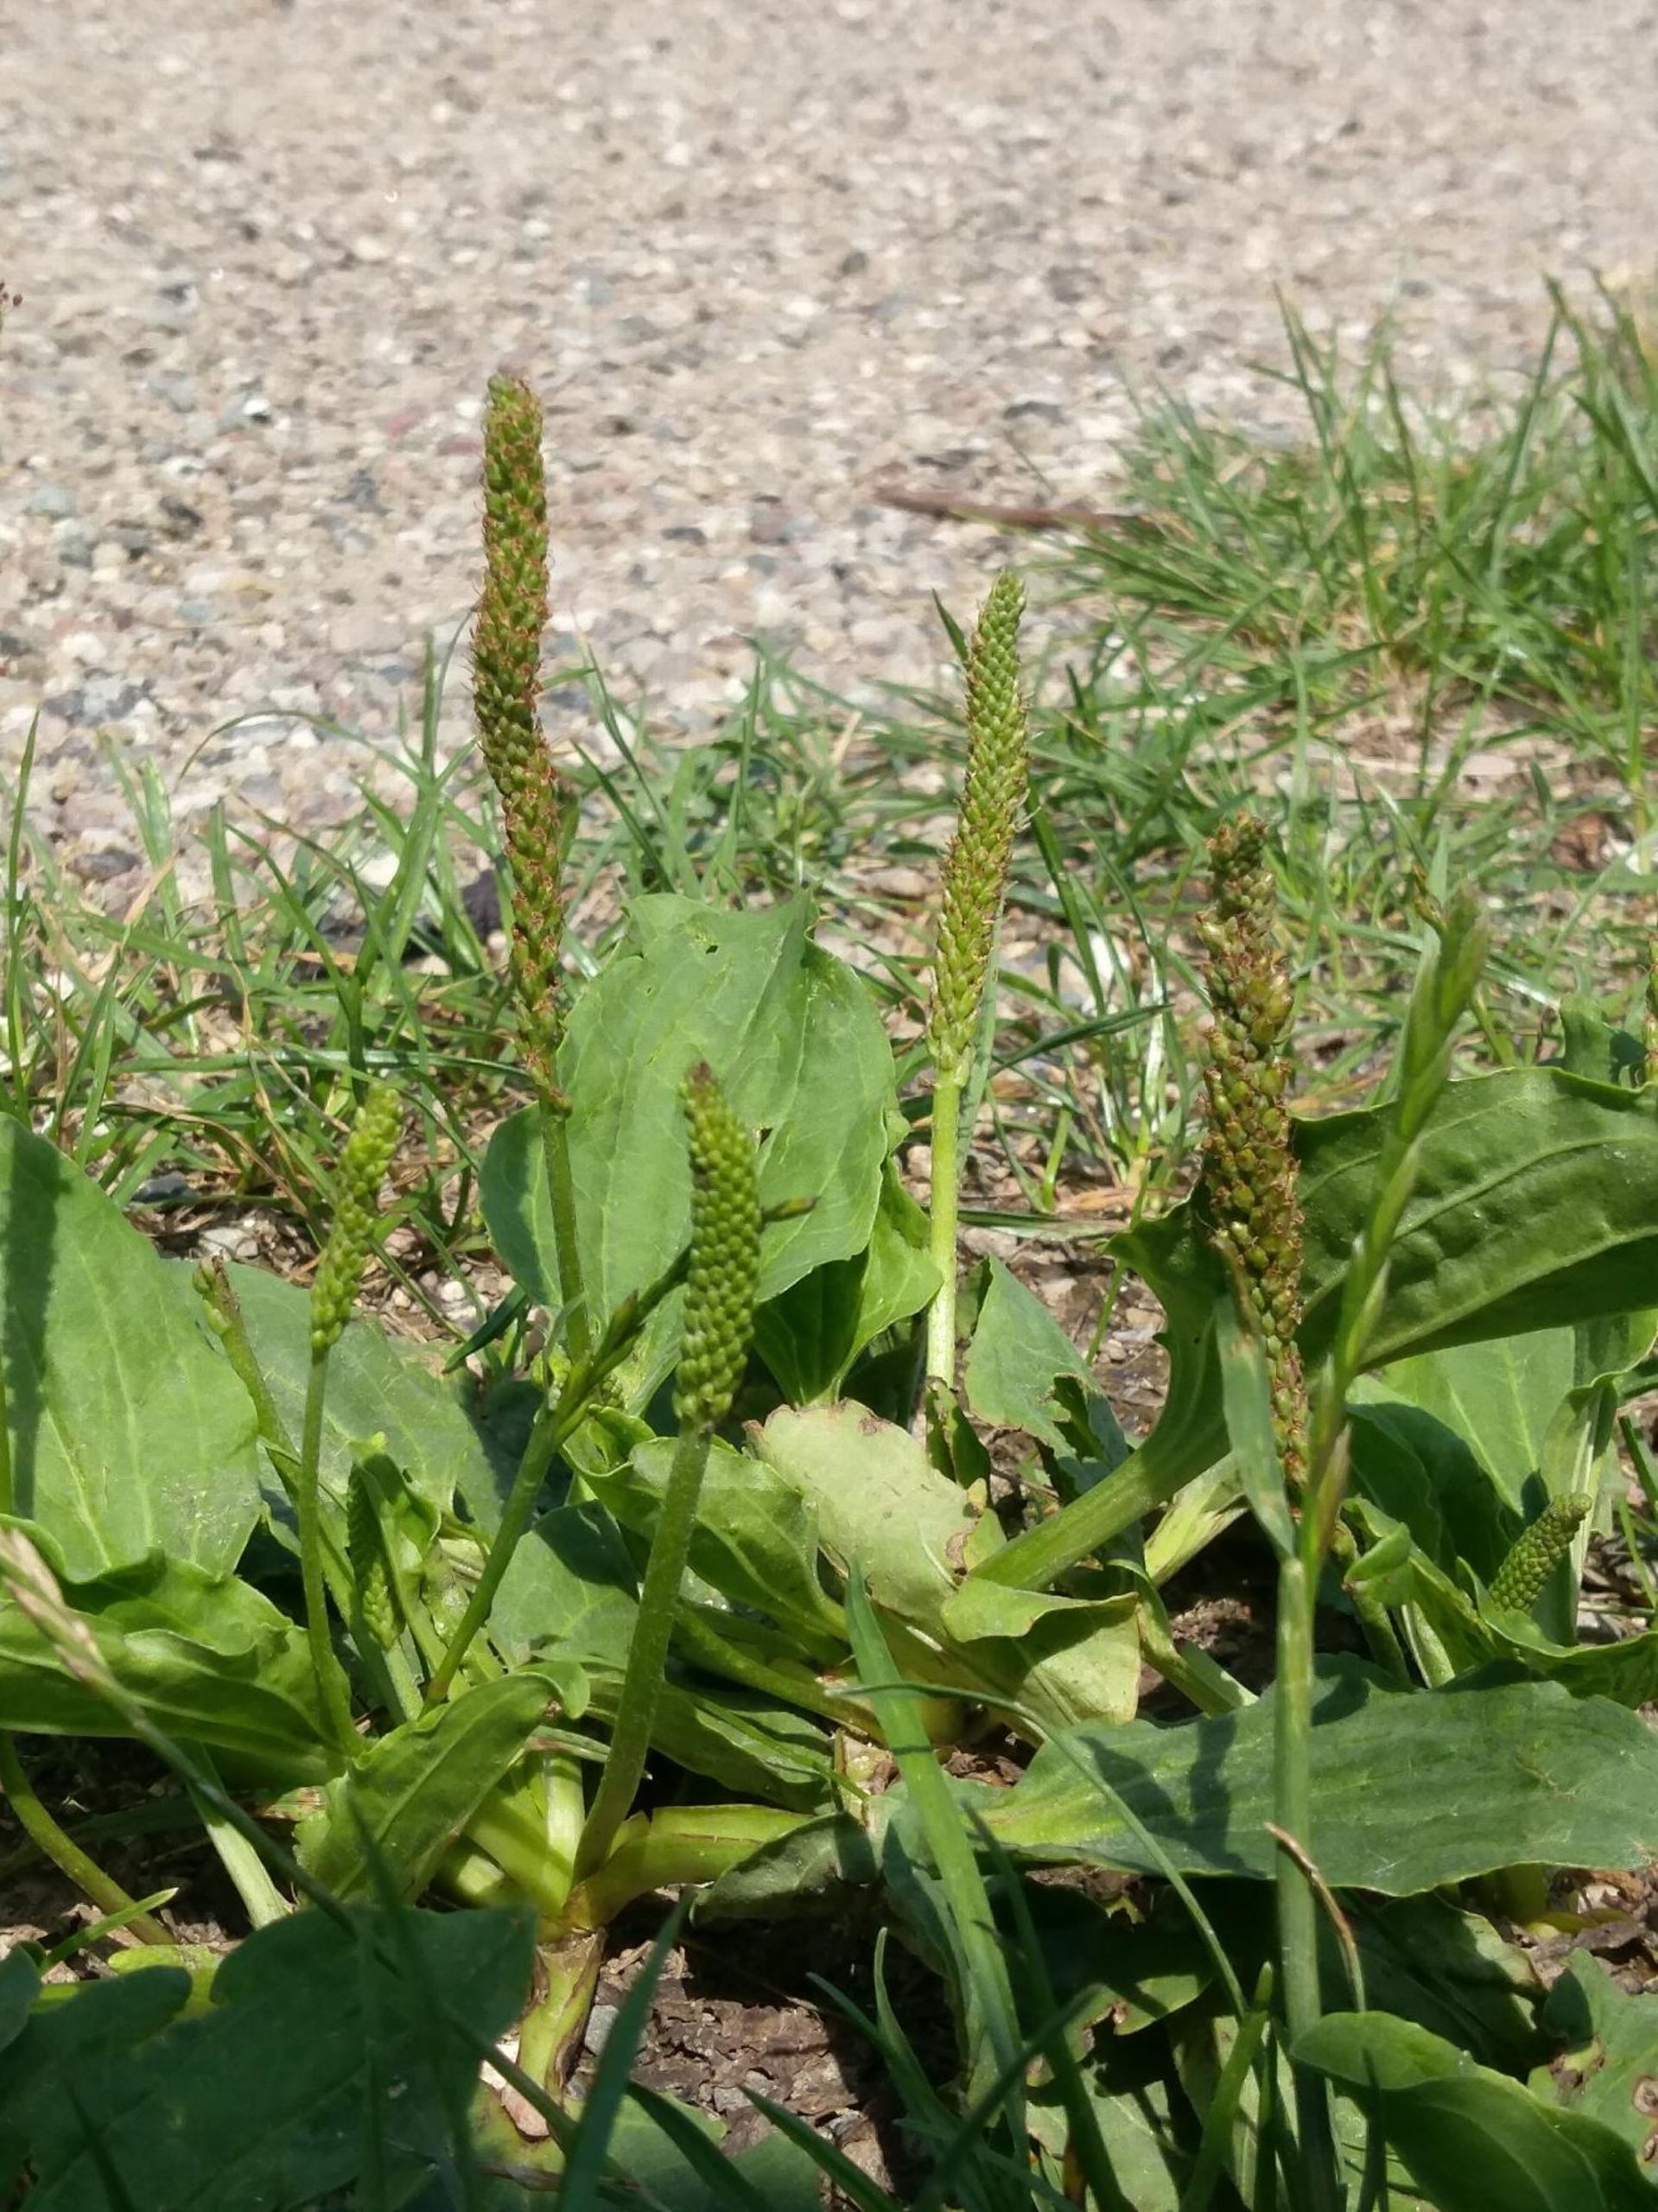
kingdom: Plantae
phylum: Tracheophyta
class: Magnoliopsida
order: Lamiales
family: Plantaginaceae
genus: Plantago
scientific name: Plantago major
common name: Glat vejbred
